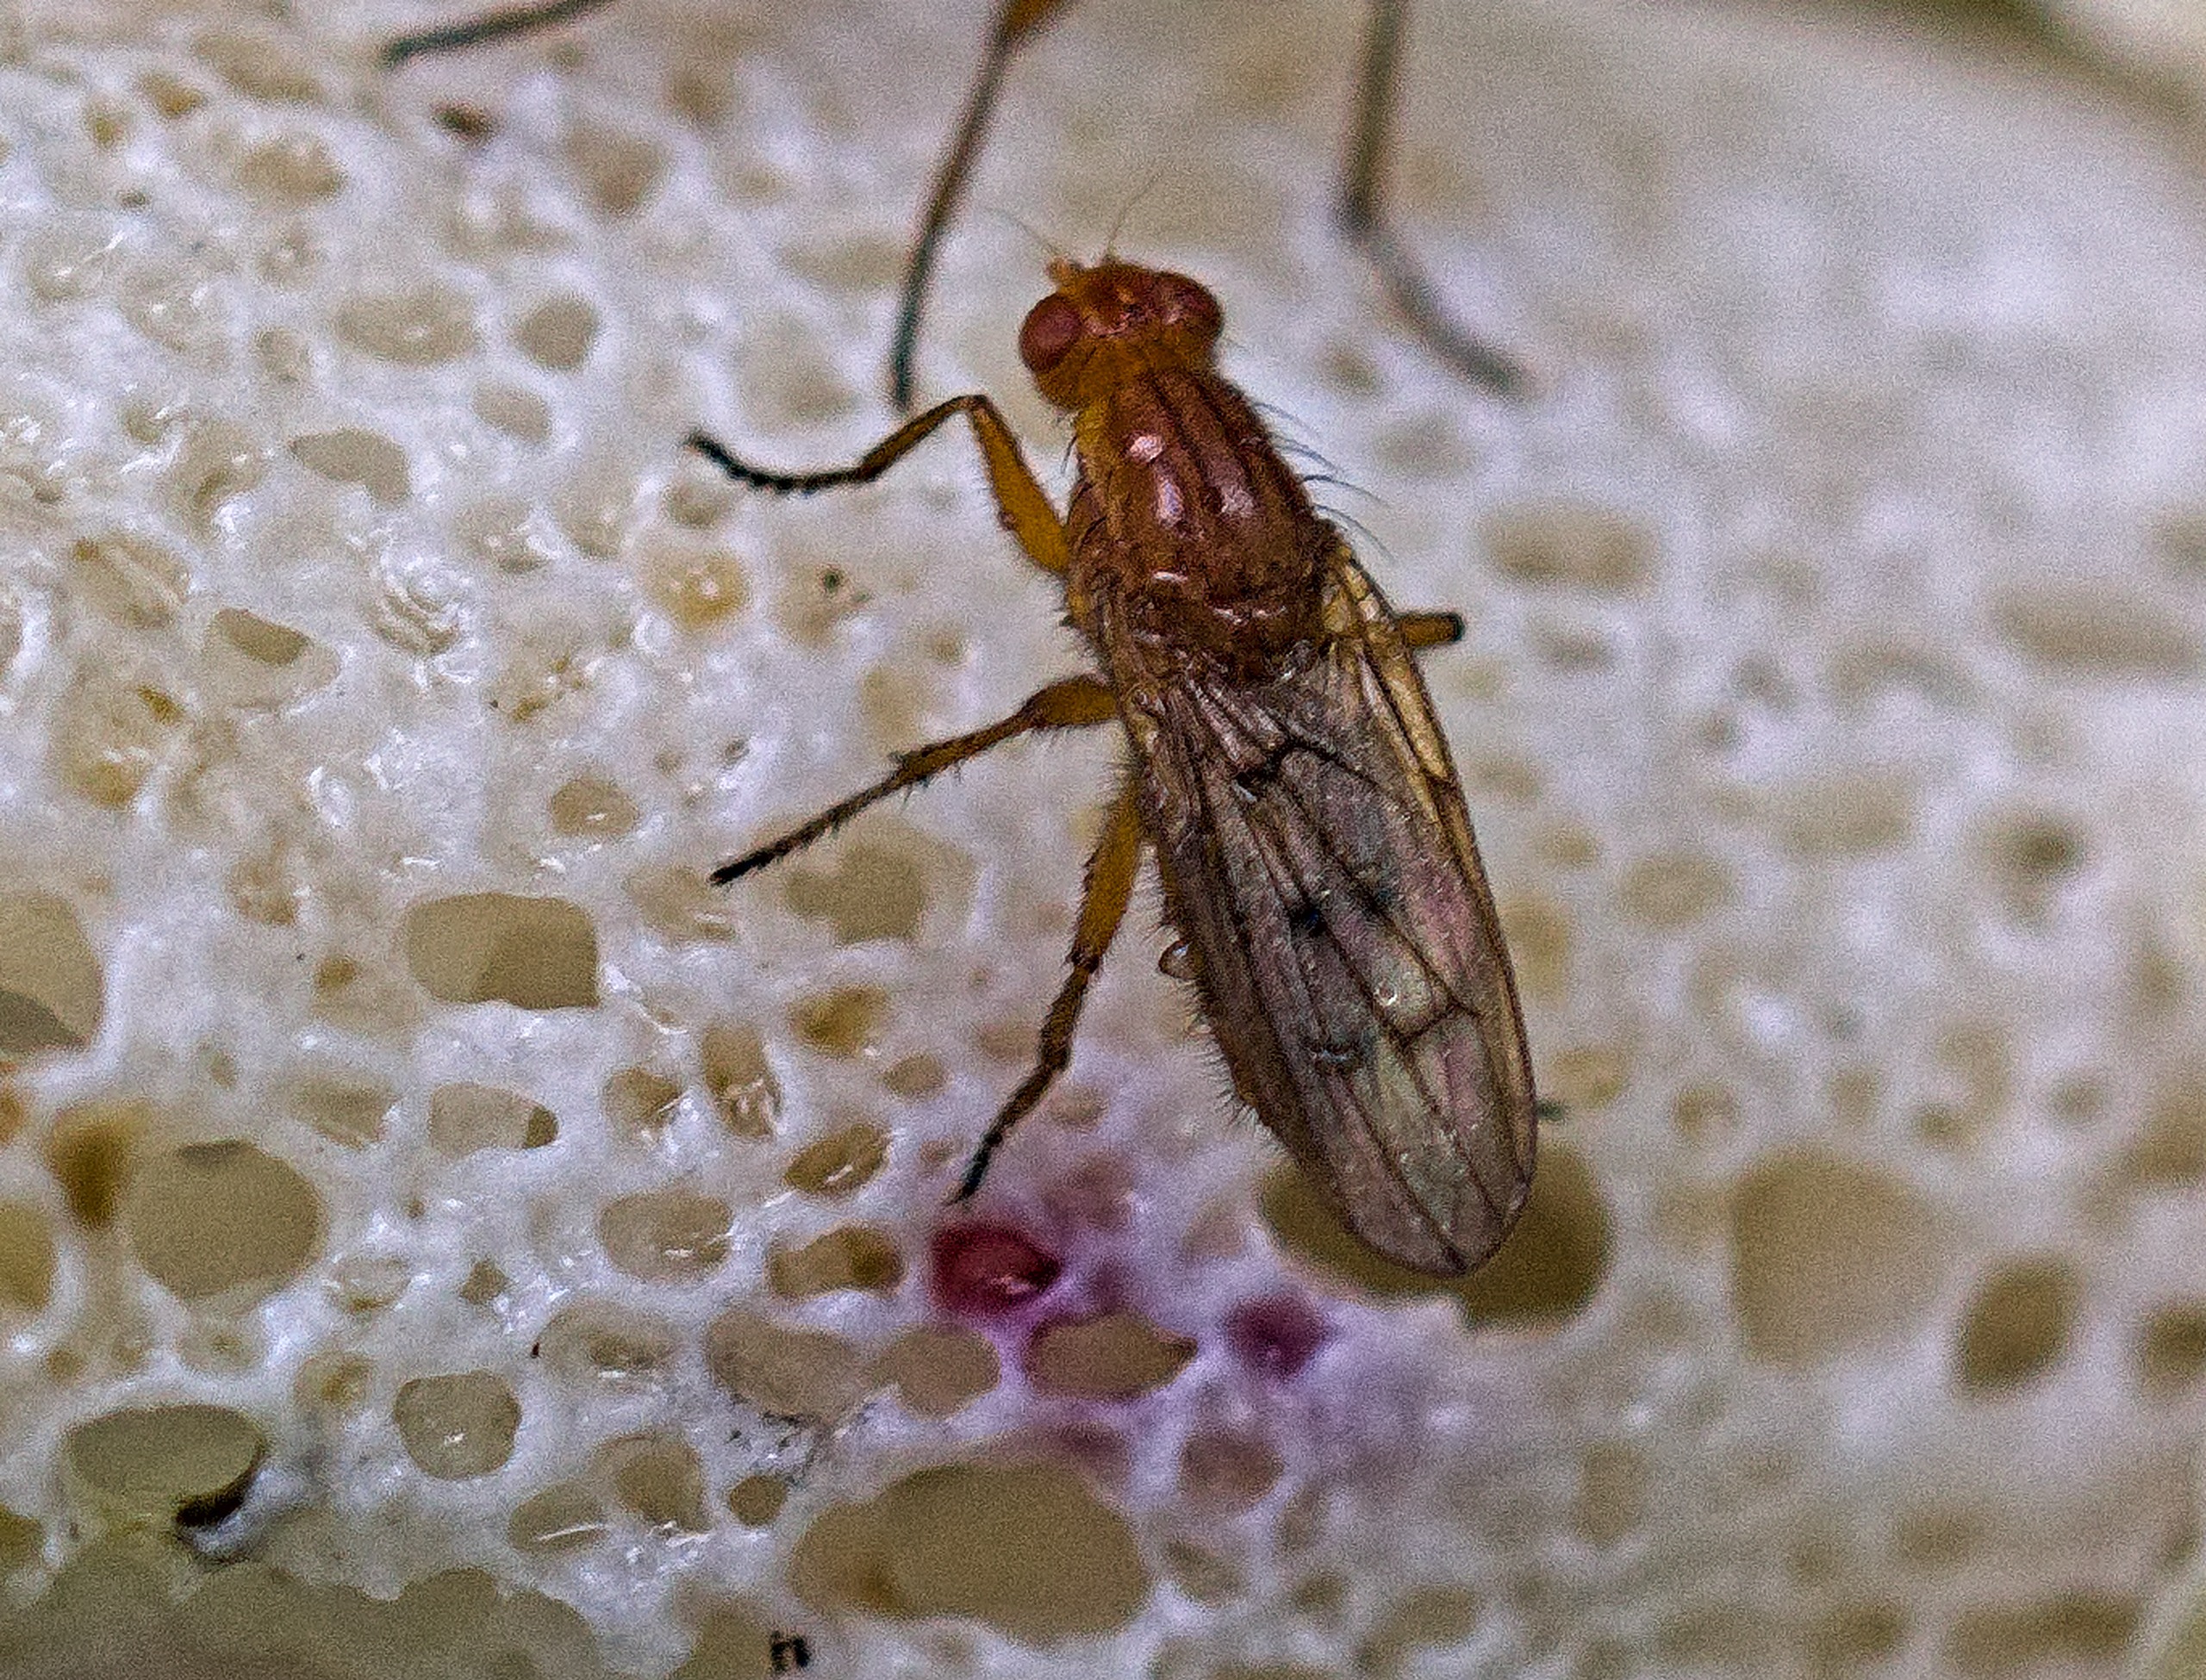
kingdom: Animalia
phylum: Arthropoda
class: Insecta
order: Diptera
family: Dryomyzidae
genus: Dryomyza
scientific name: Dryomyza anilis
